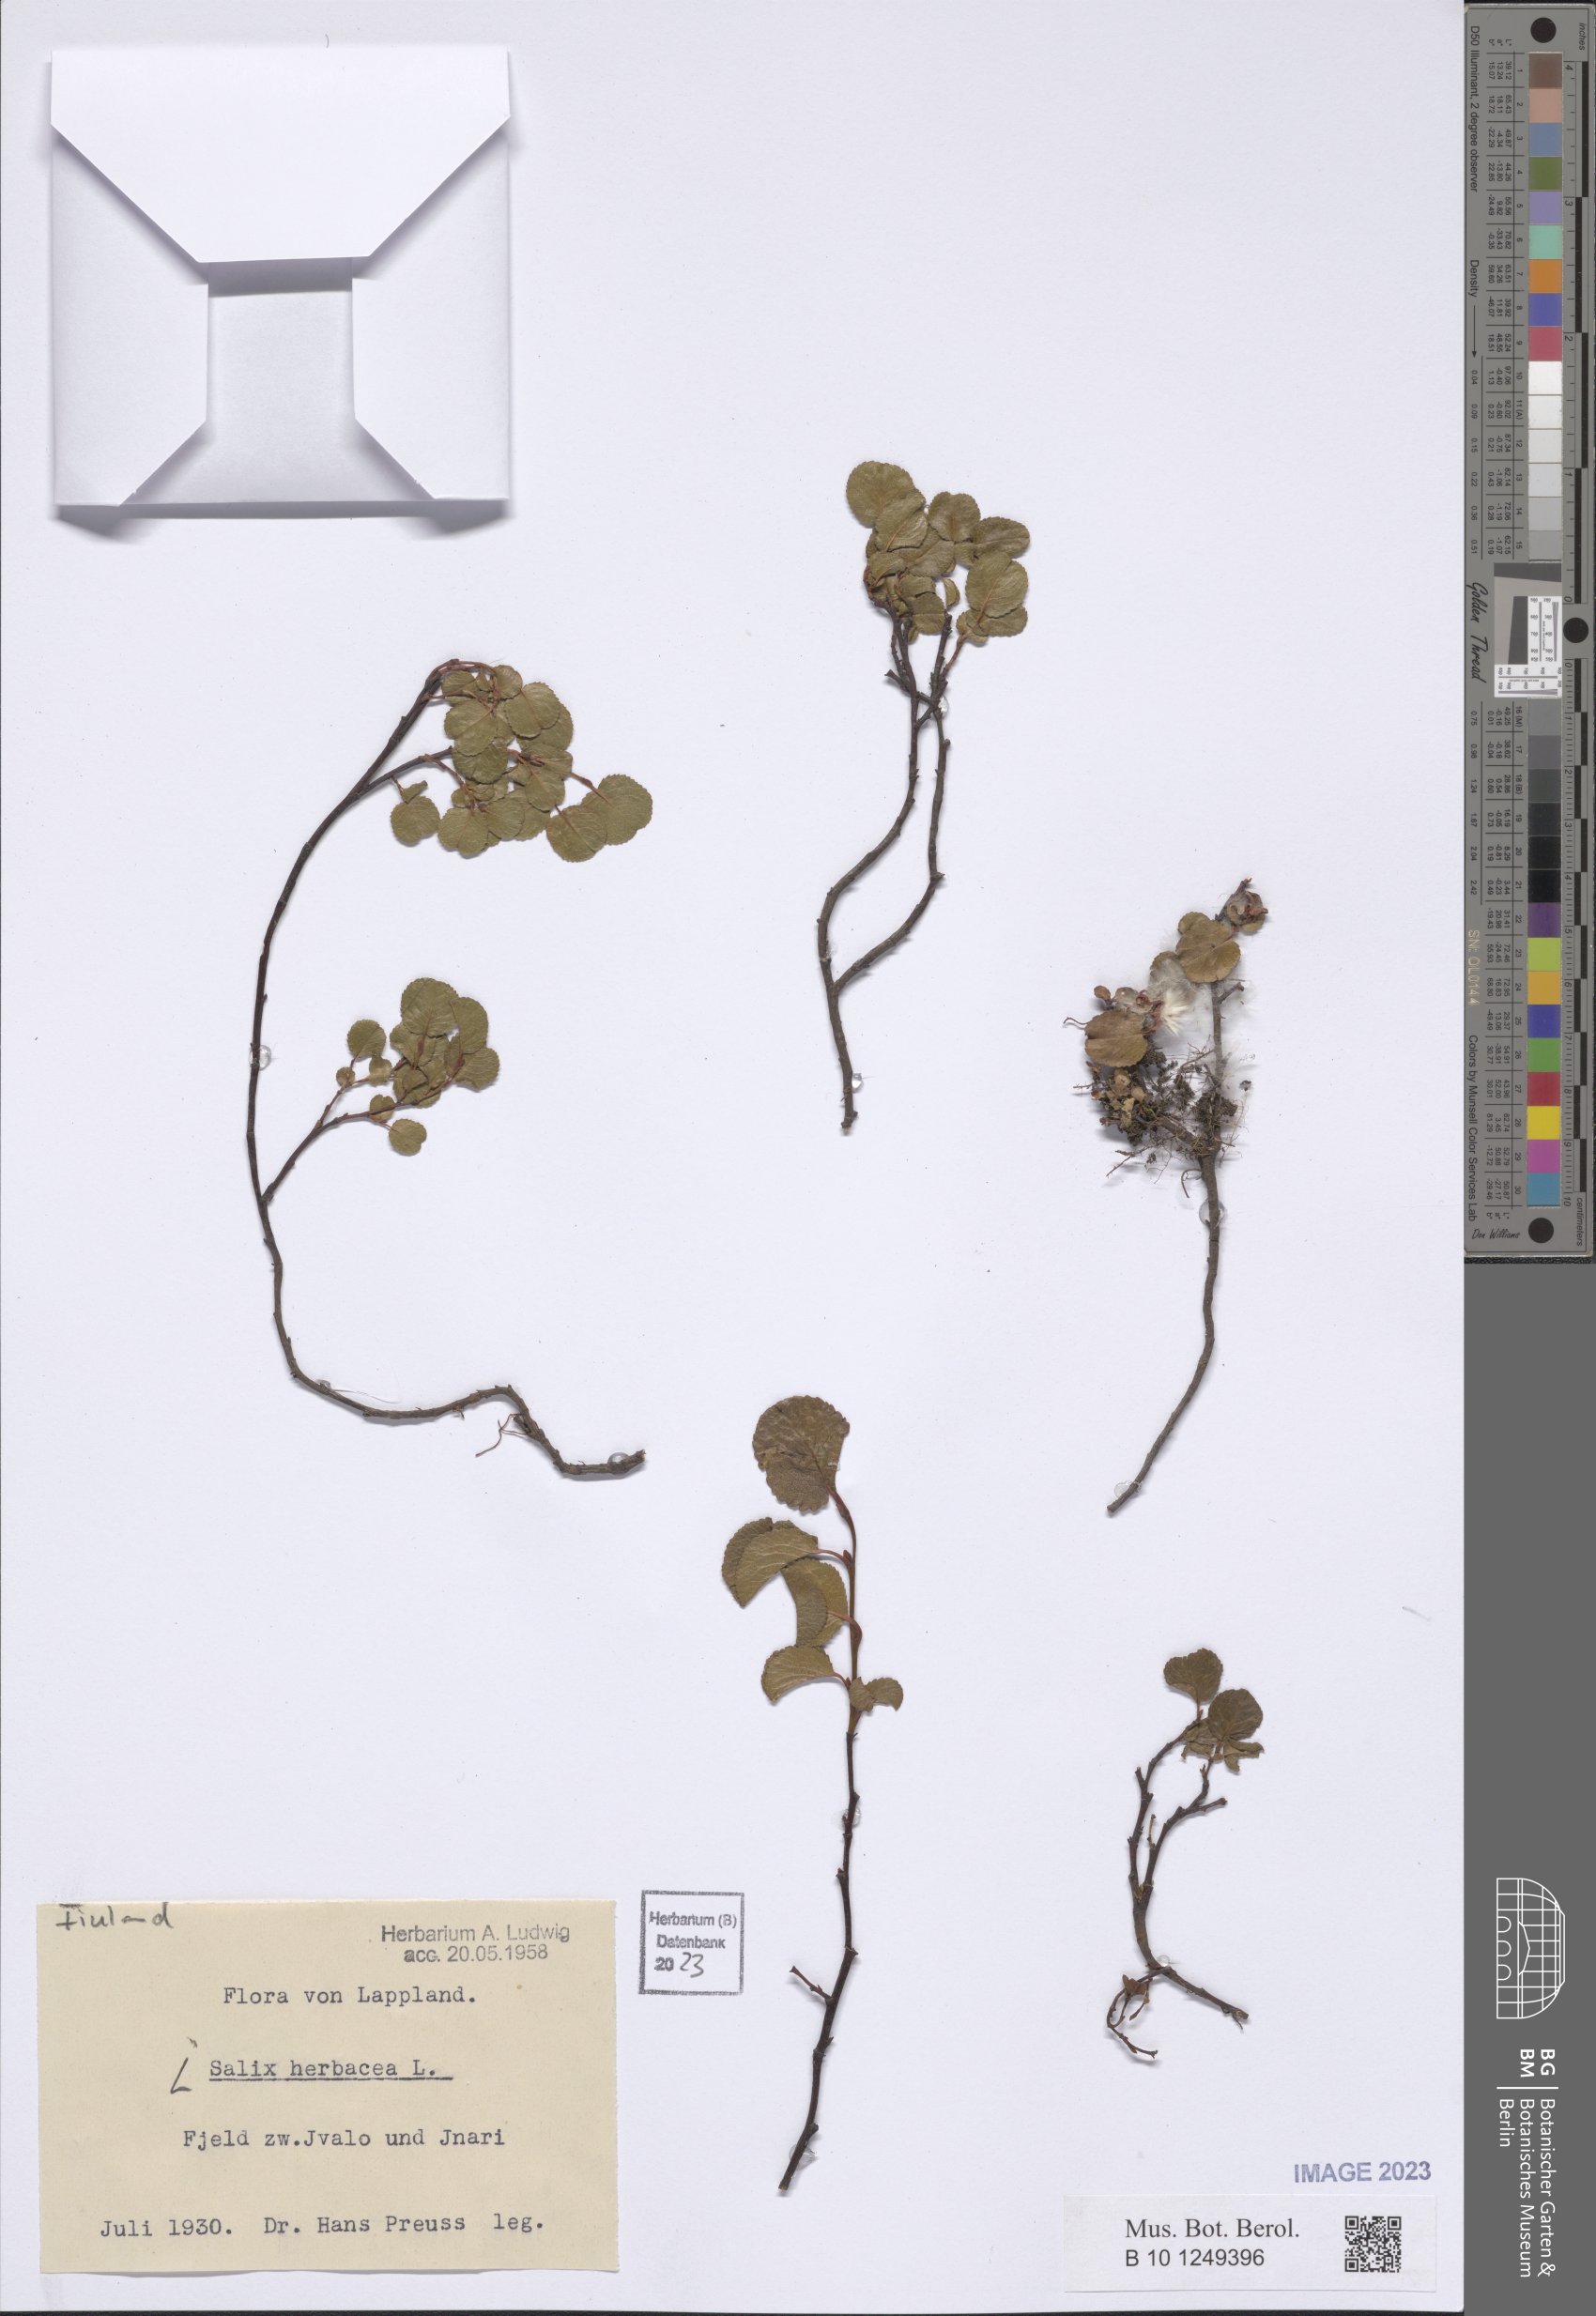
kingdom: Plantae
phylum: Tracheophyta
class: Magnoliopsida
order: Malpighiales
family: Salicaceae
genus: Salix
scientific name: Salix herbacea
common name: Dwarf willow
